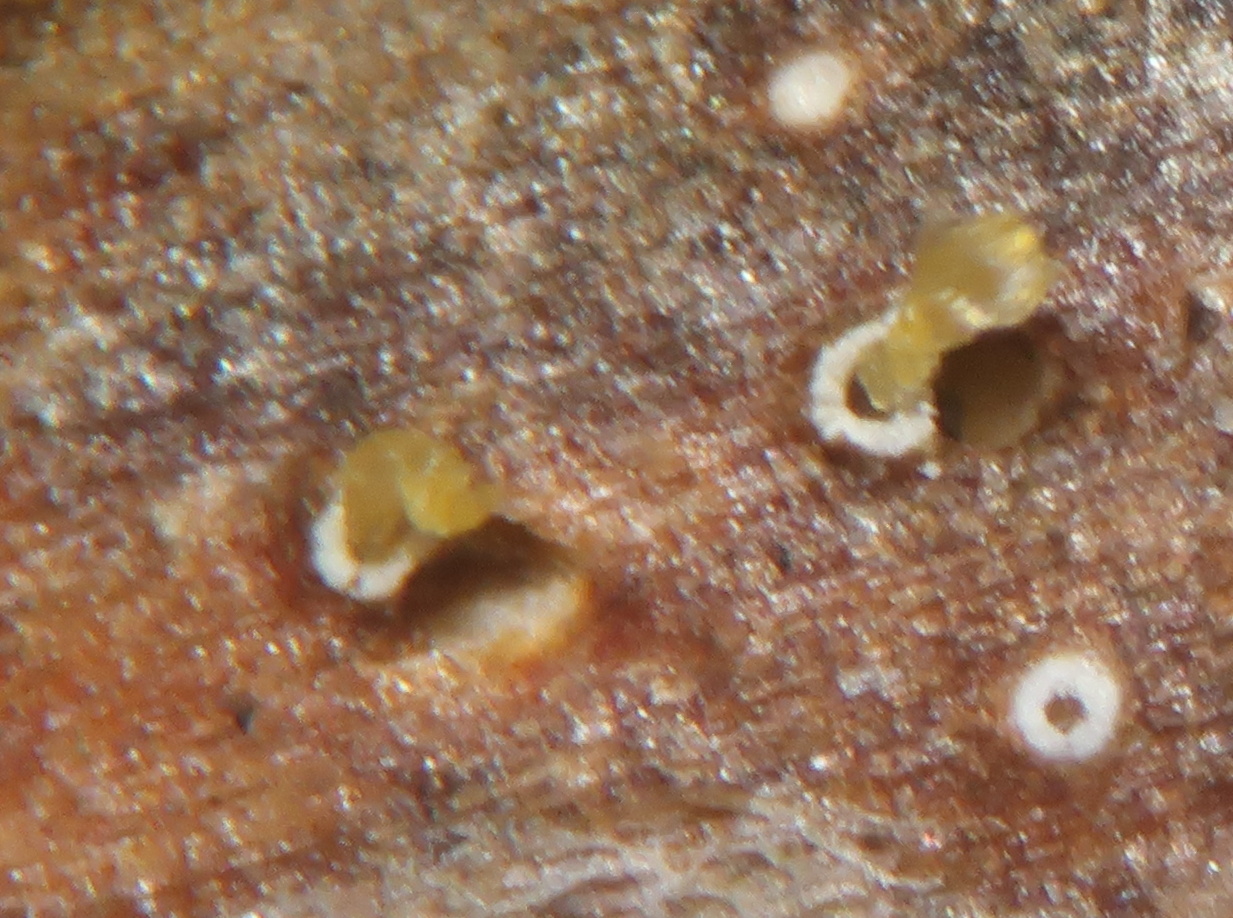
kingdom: Fungi
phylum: Ascomycota
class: Lecanoromycetes
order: Ostropales
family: Stictidaceae
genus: Stictis
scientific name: Stictis
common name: barkhul
